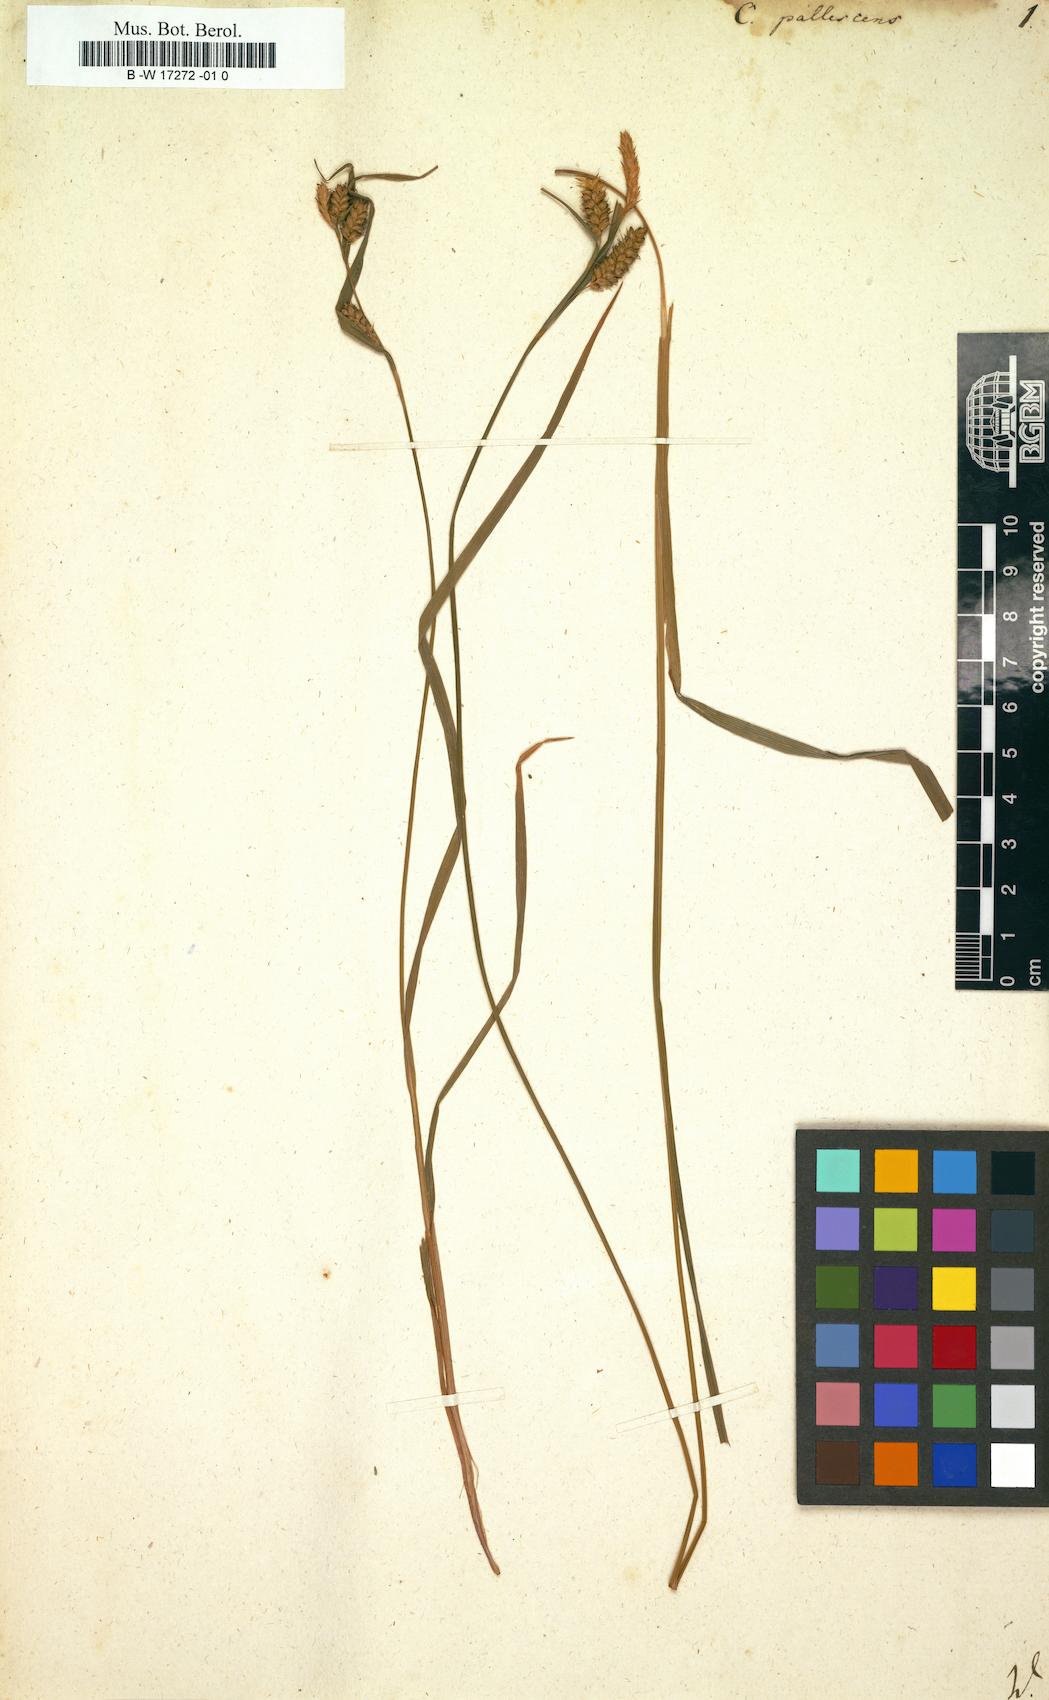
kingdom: Plantae
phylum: Tracheophyta
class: Liliopsida
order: Poales
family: Cyperaceae
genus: Carex
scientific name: Carex pallescens
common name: Pale sedge
